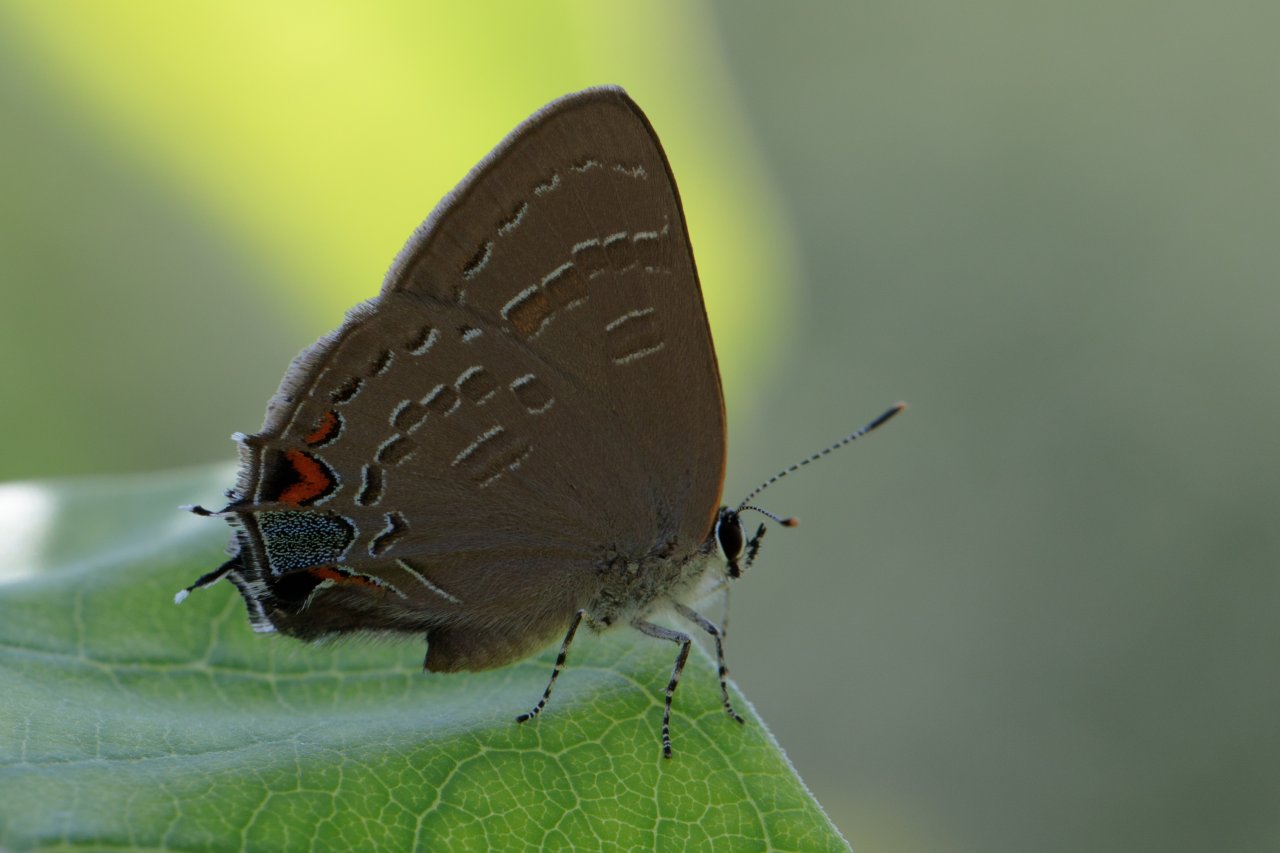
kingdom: Animalia
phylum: Arthropoda
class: Insecta
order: Lepidoptera
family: Lycaenidae
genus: Satyrium
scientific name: Satyrium calanus
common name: Banded Hairstreak
